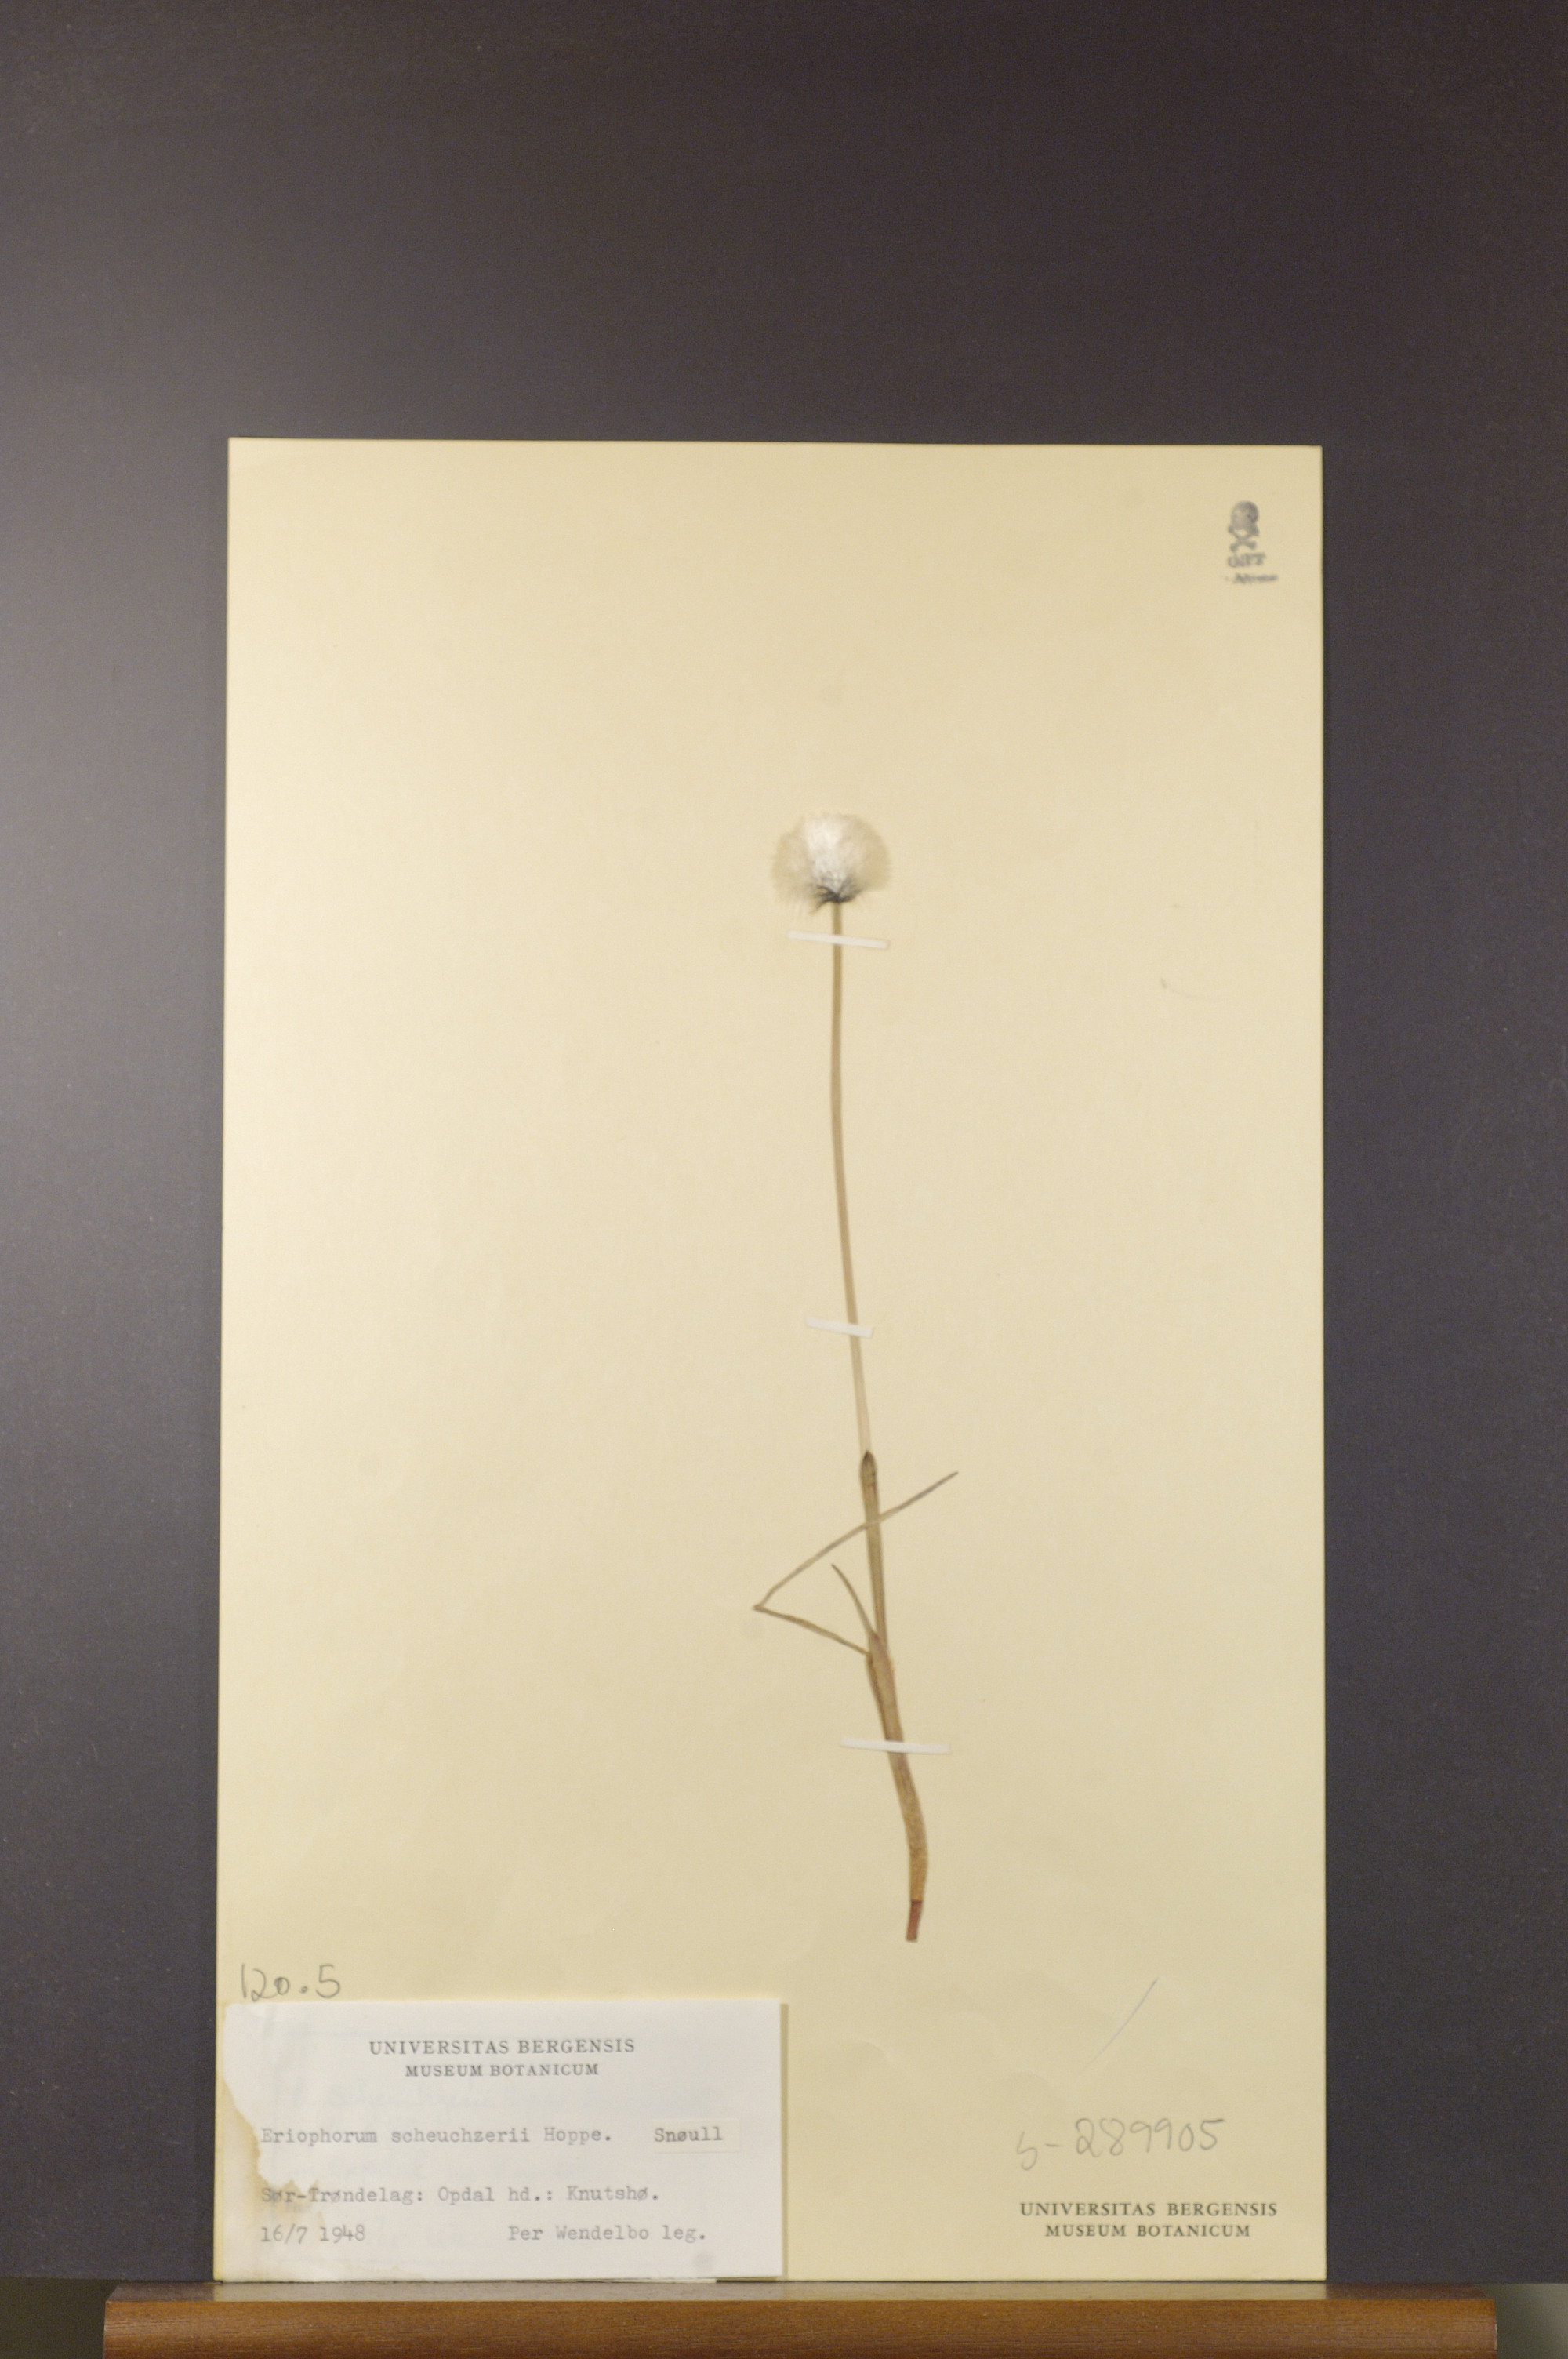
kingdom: Plantae
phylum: Tracheophyta
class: Liliopsida
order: Poales
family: Cyperaceae
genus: Eriophorum
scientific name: Eriophorum scheuchzeri
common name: Scheuchzer's cottongrass
